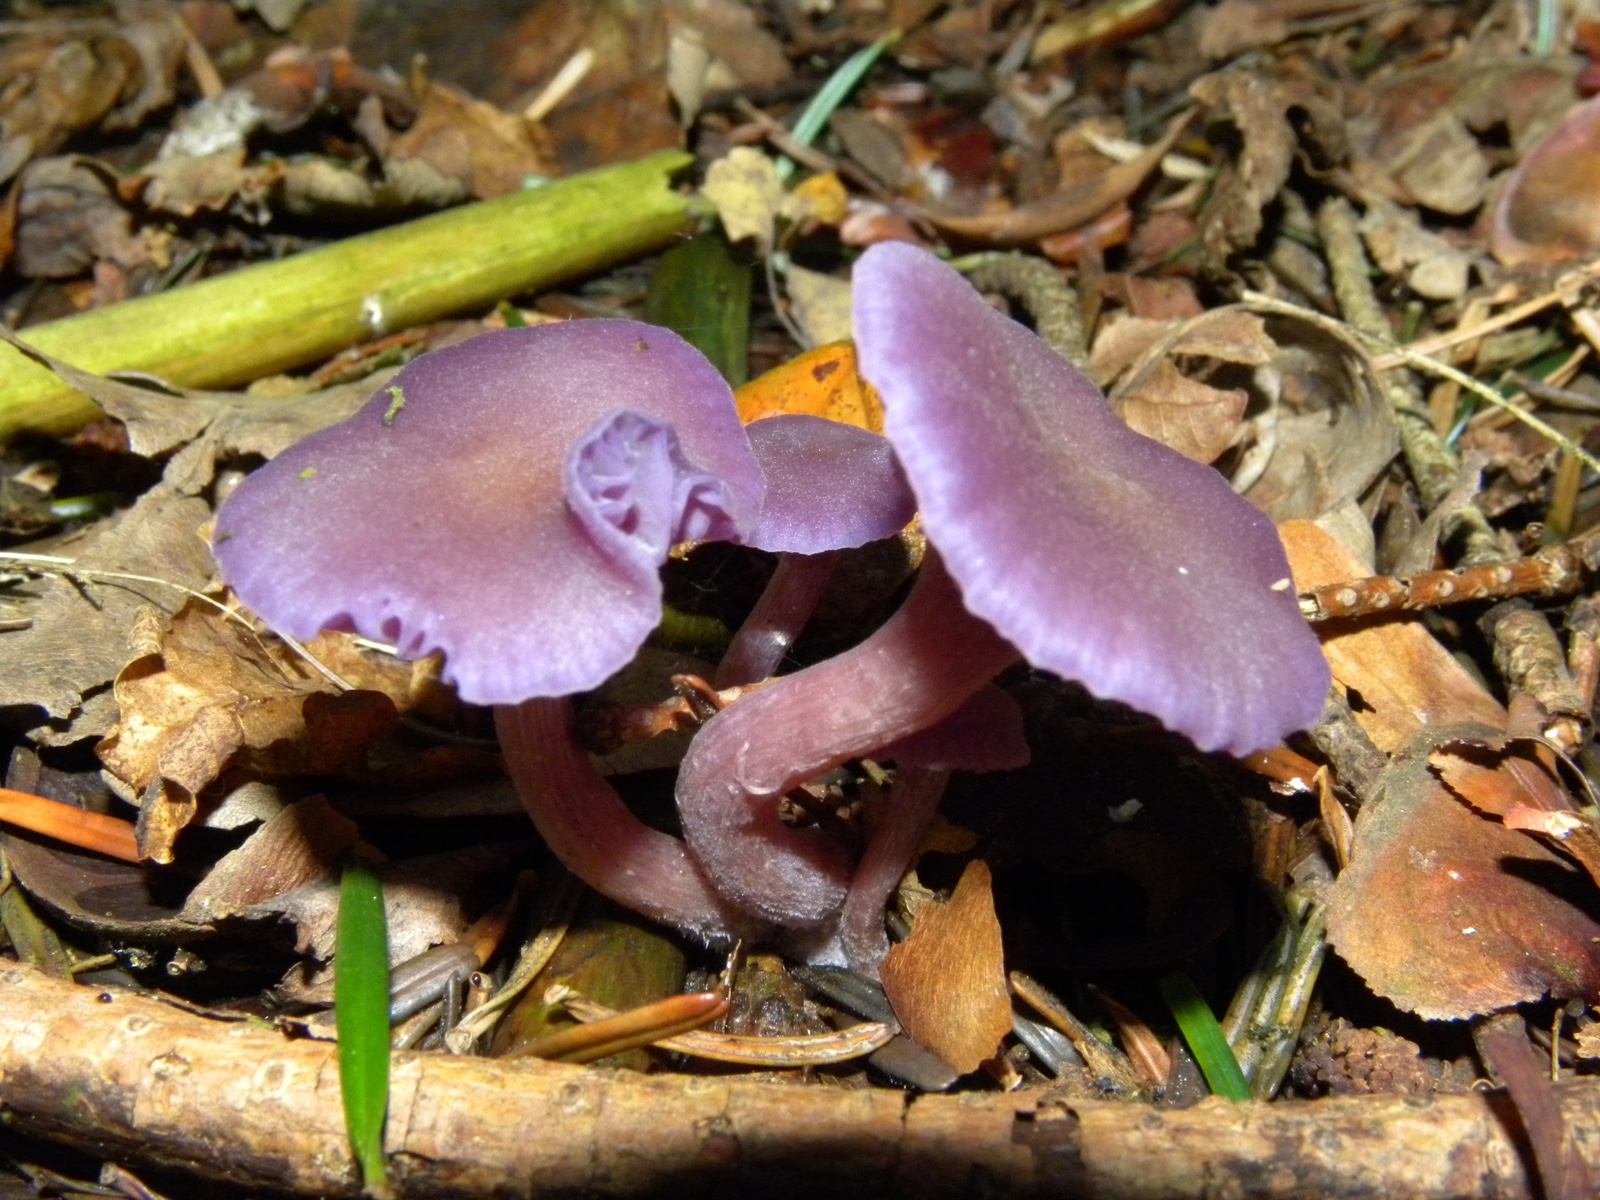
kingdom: Fungi
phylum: Basidiomycota
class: Agaricomycetes
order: Agaricales
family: Hydnangiaceae
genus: Laccaria
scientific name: Laccaria amethystina
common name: violet ametysthat
